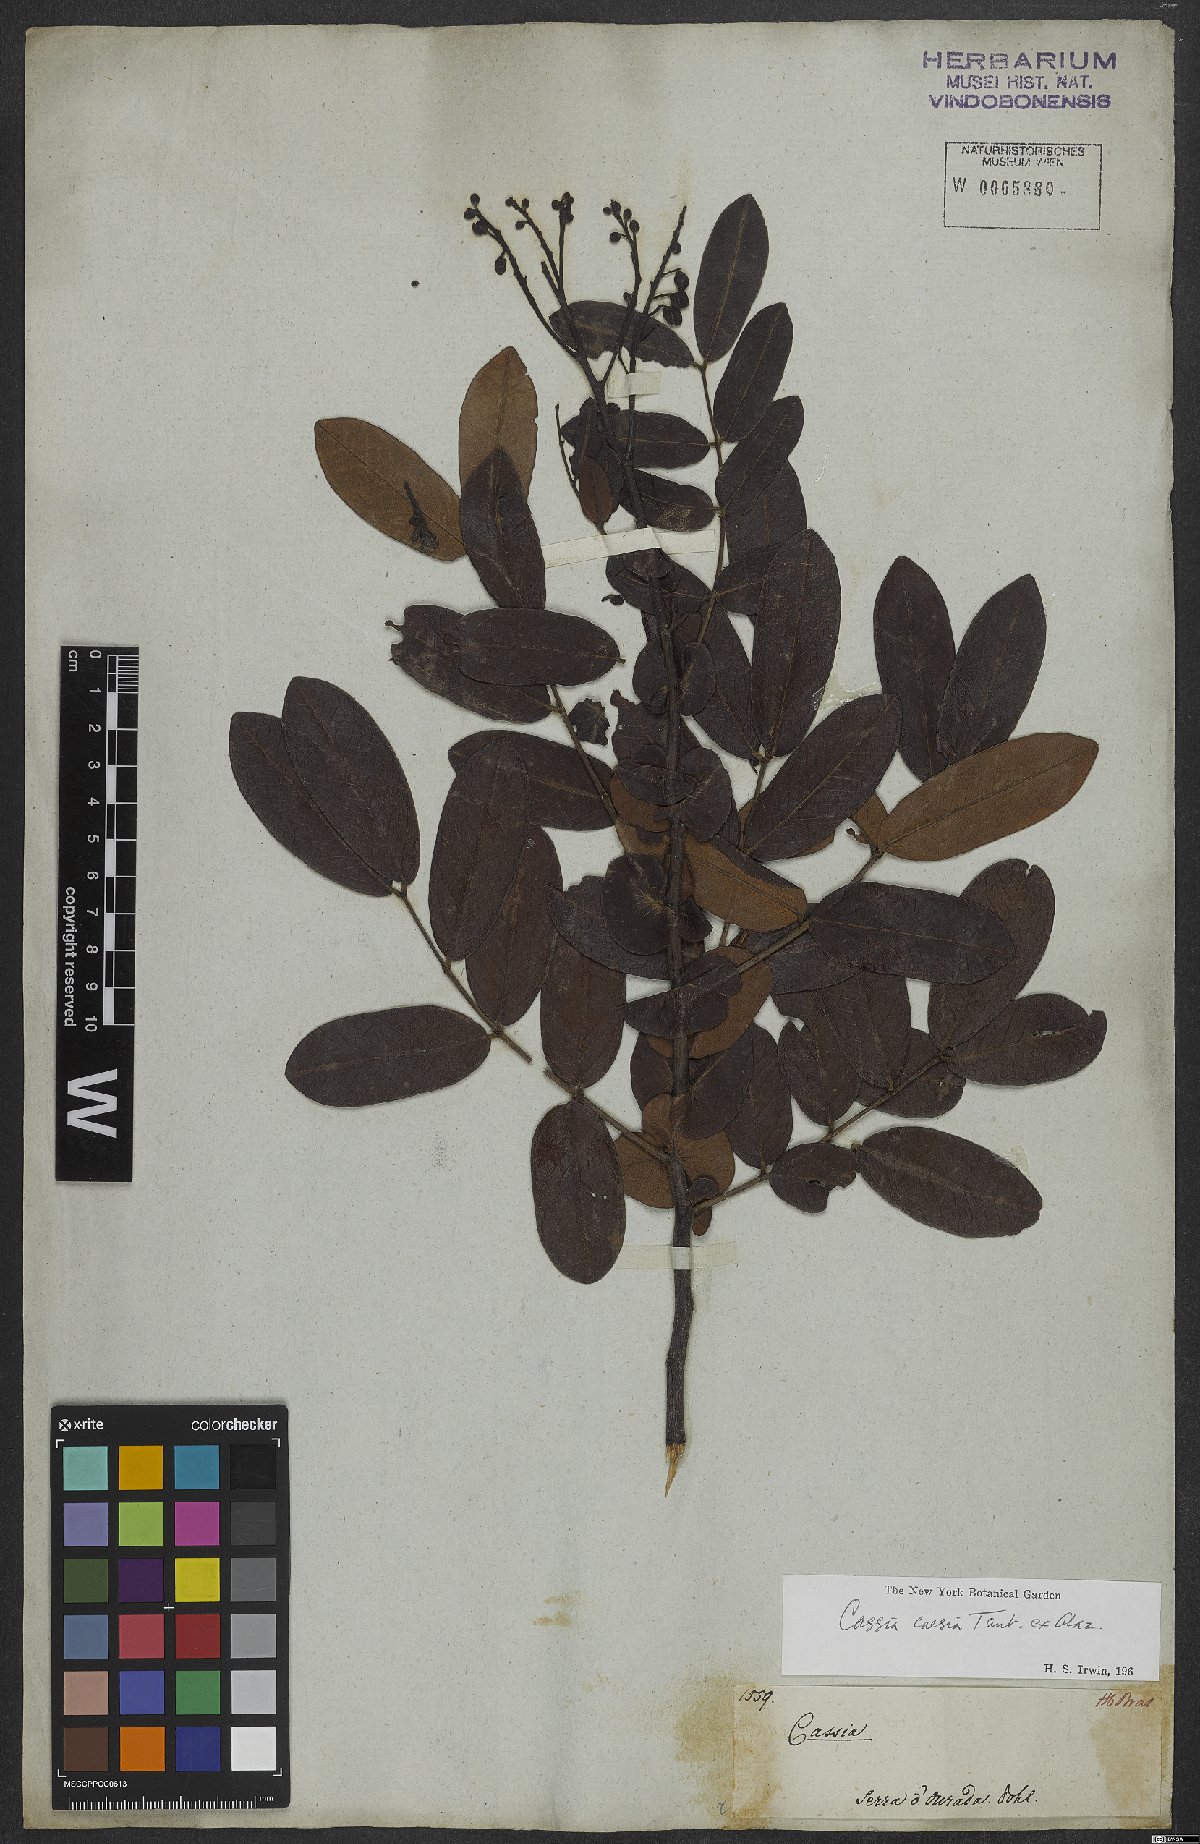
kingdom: Plantae
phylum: Tracheophyta
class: Magnoliopsida
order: Fabales
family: Fabaceae
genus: Senna
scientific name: Senna corifolia
